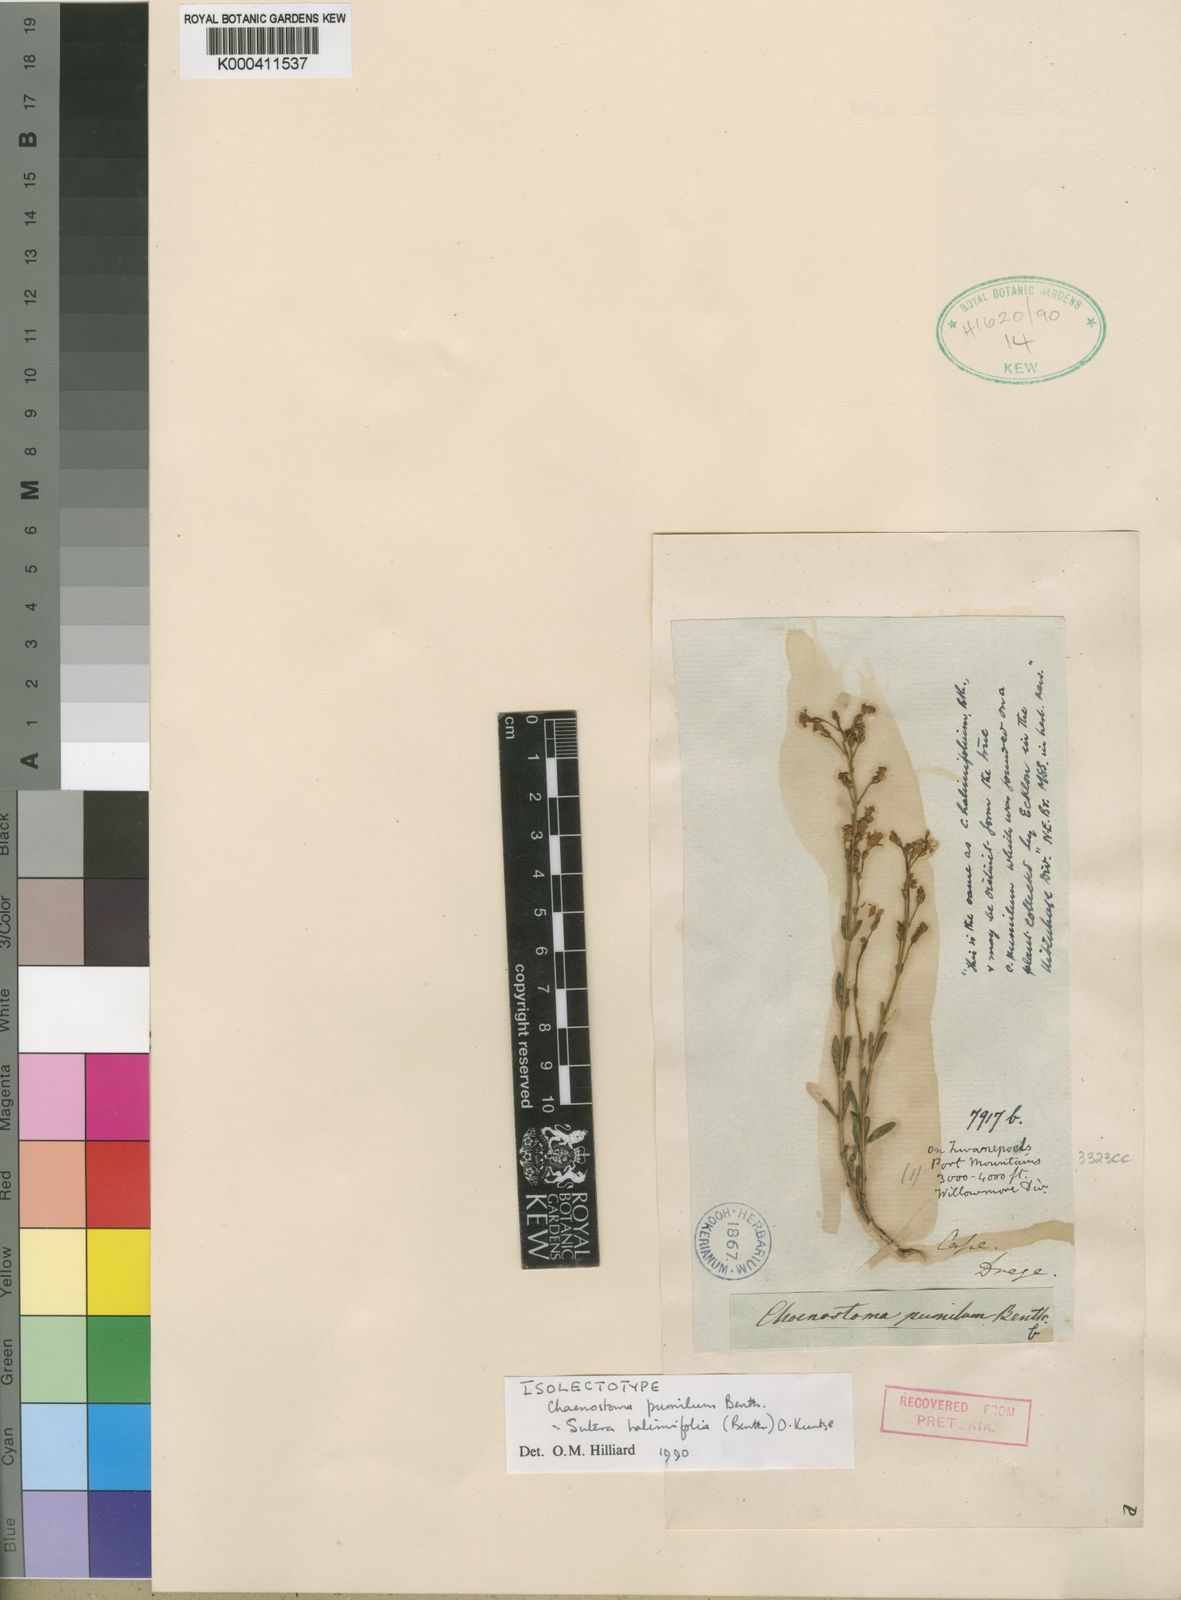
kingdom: Plantae
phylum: Tracheophyta
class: Magnoliopsida
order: Lamiales
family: Scrophulariaceae
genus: Chaenostoma
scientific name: Chaenostoma halimifolium
